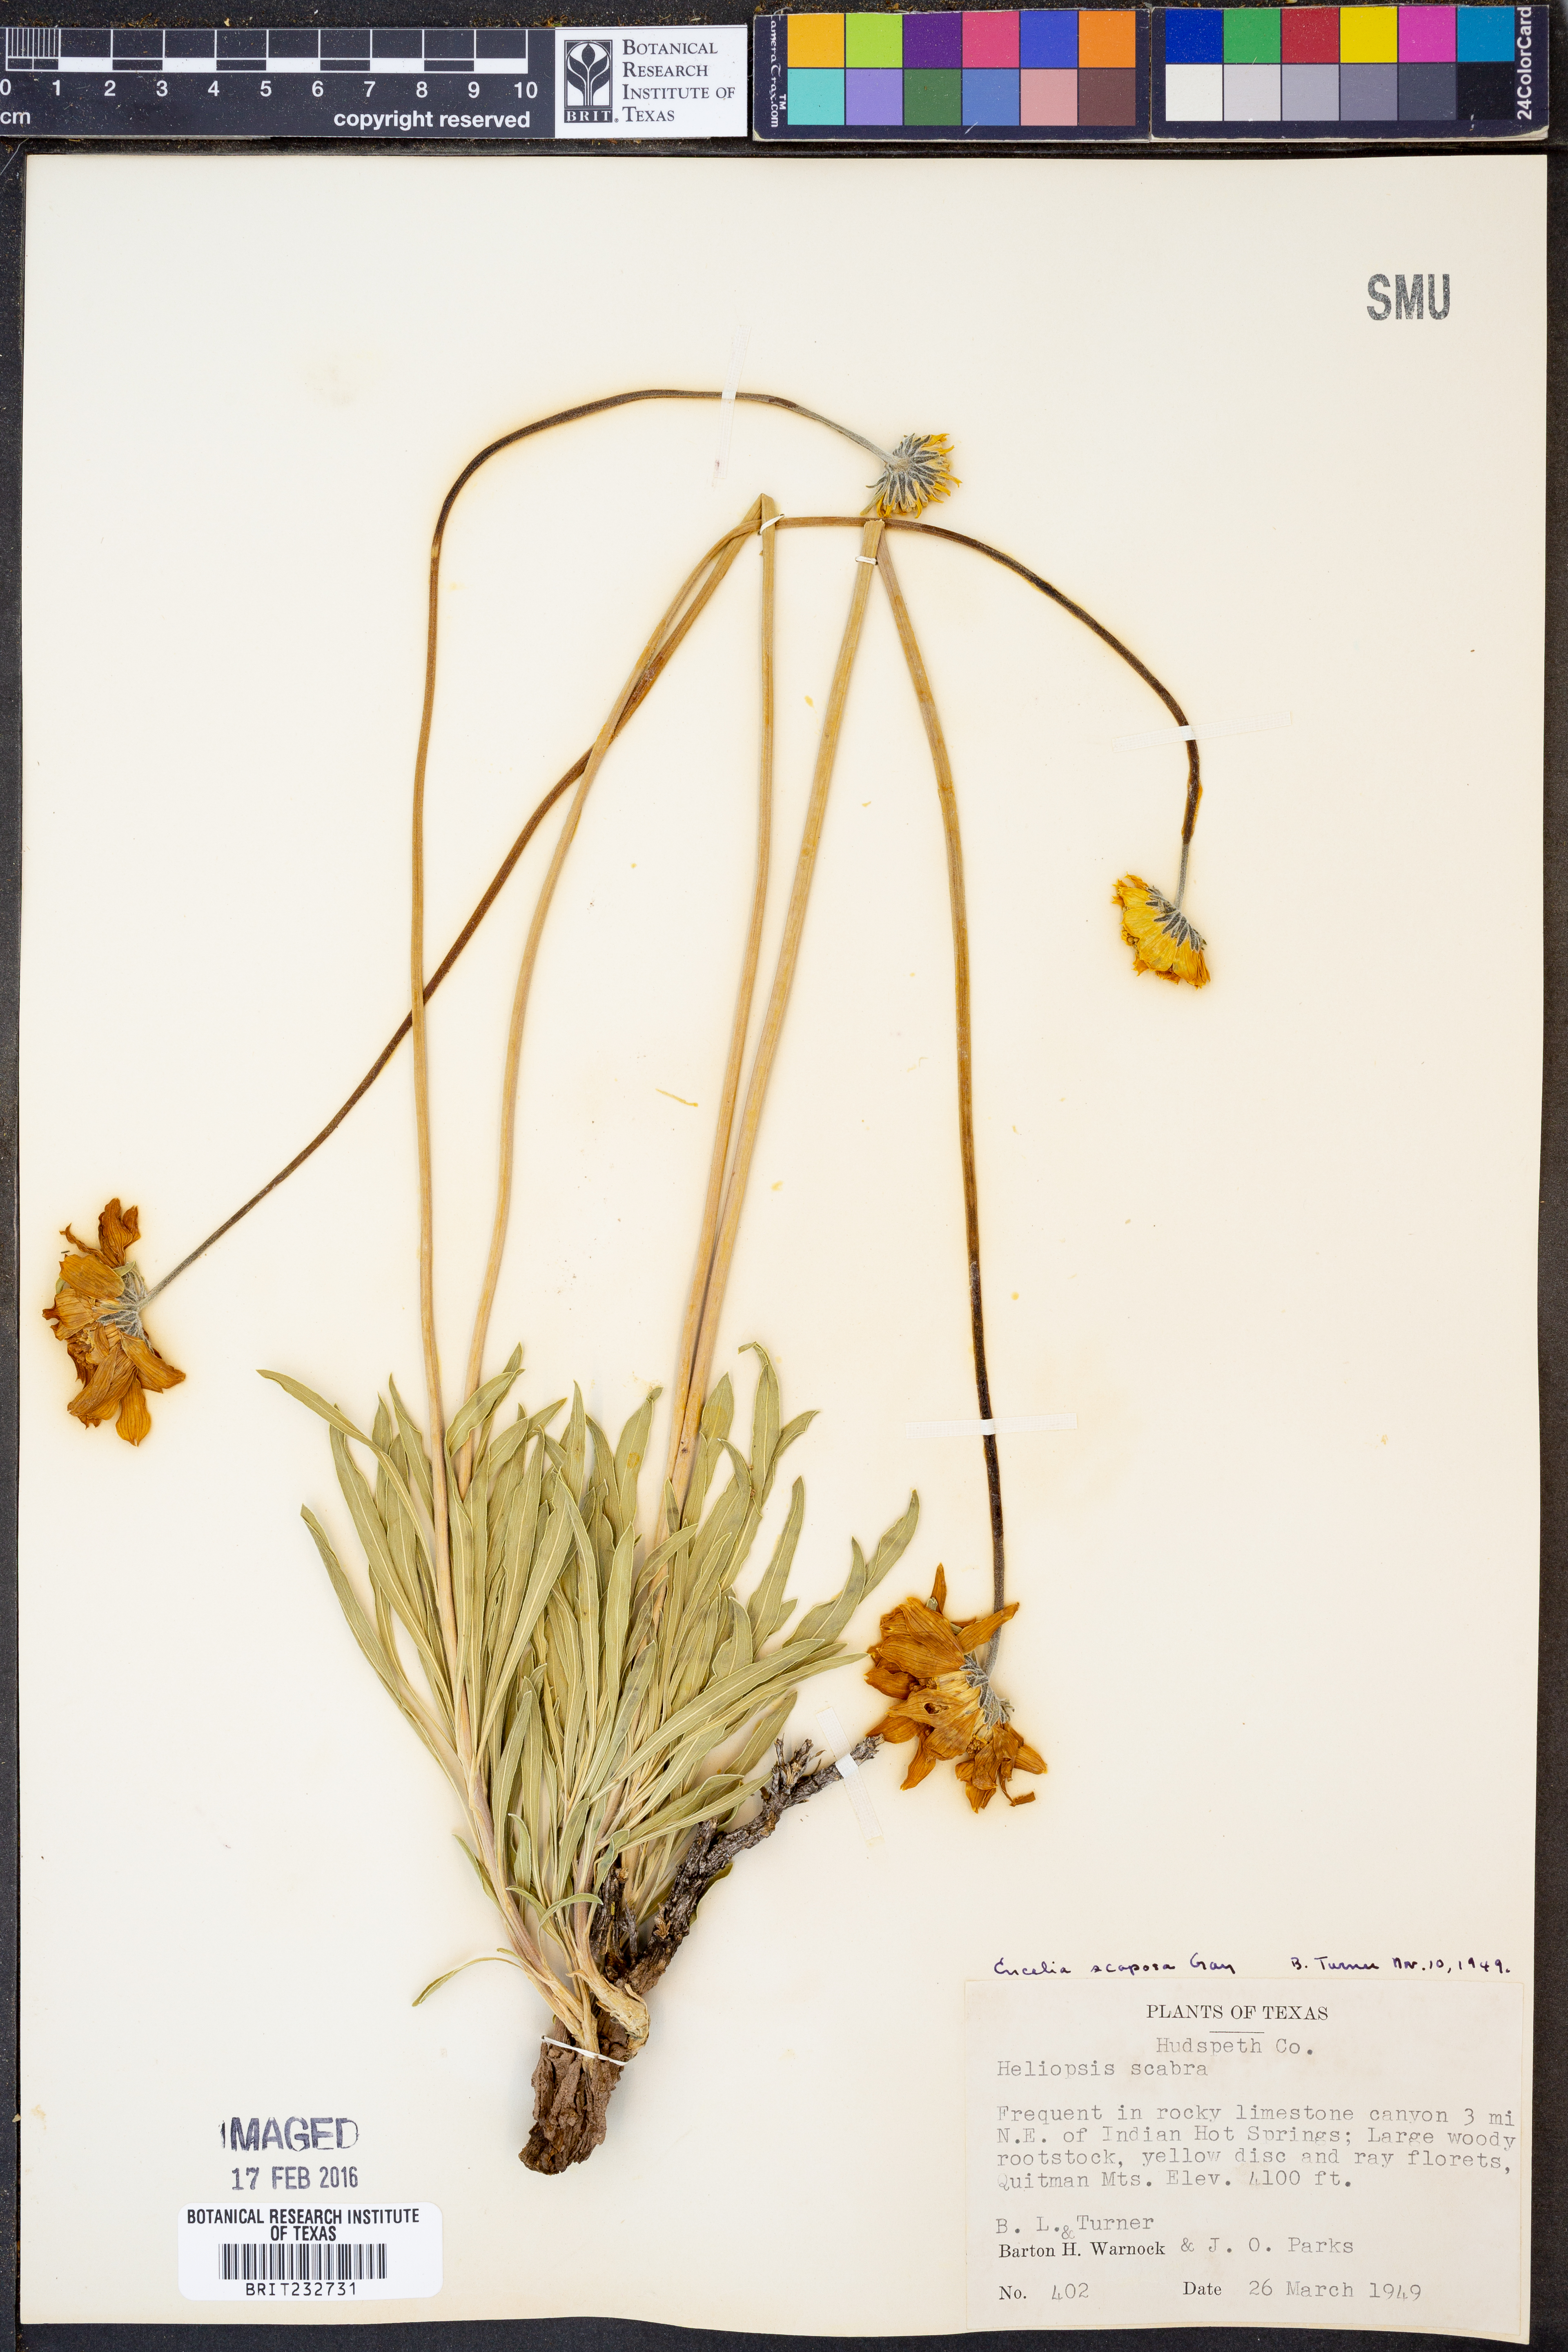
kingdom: Plantae
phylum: Tracheophyta
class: Magnoliopsida
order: Asterales
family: Asteraceae
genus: Encelia
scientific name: Encelia scaposa
